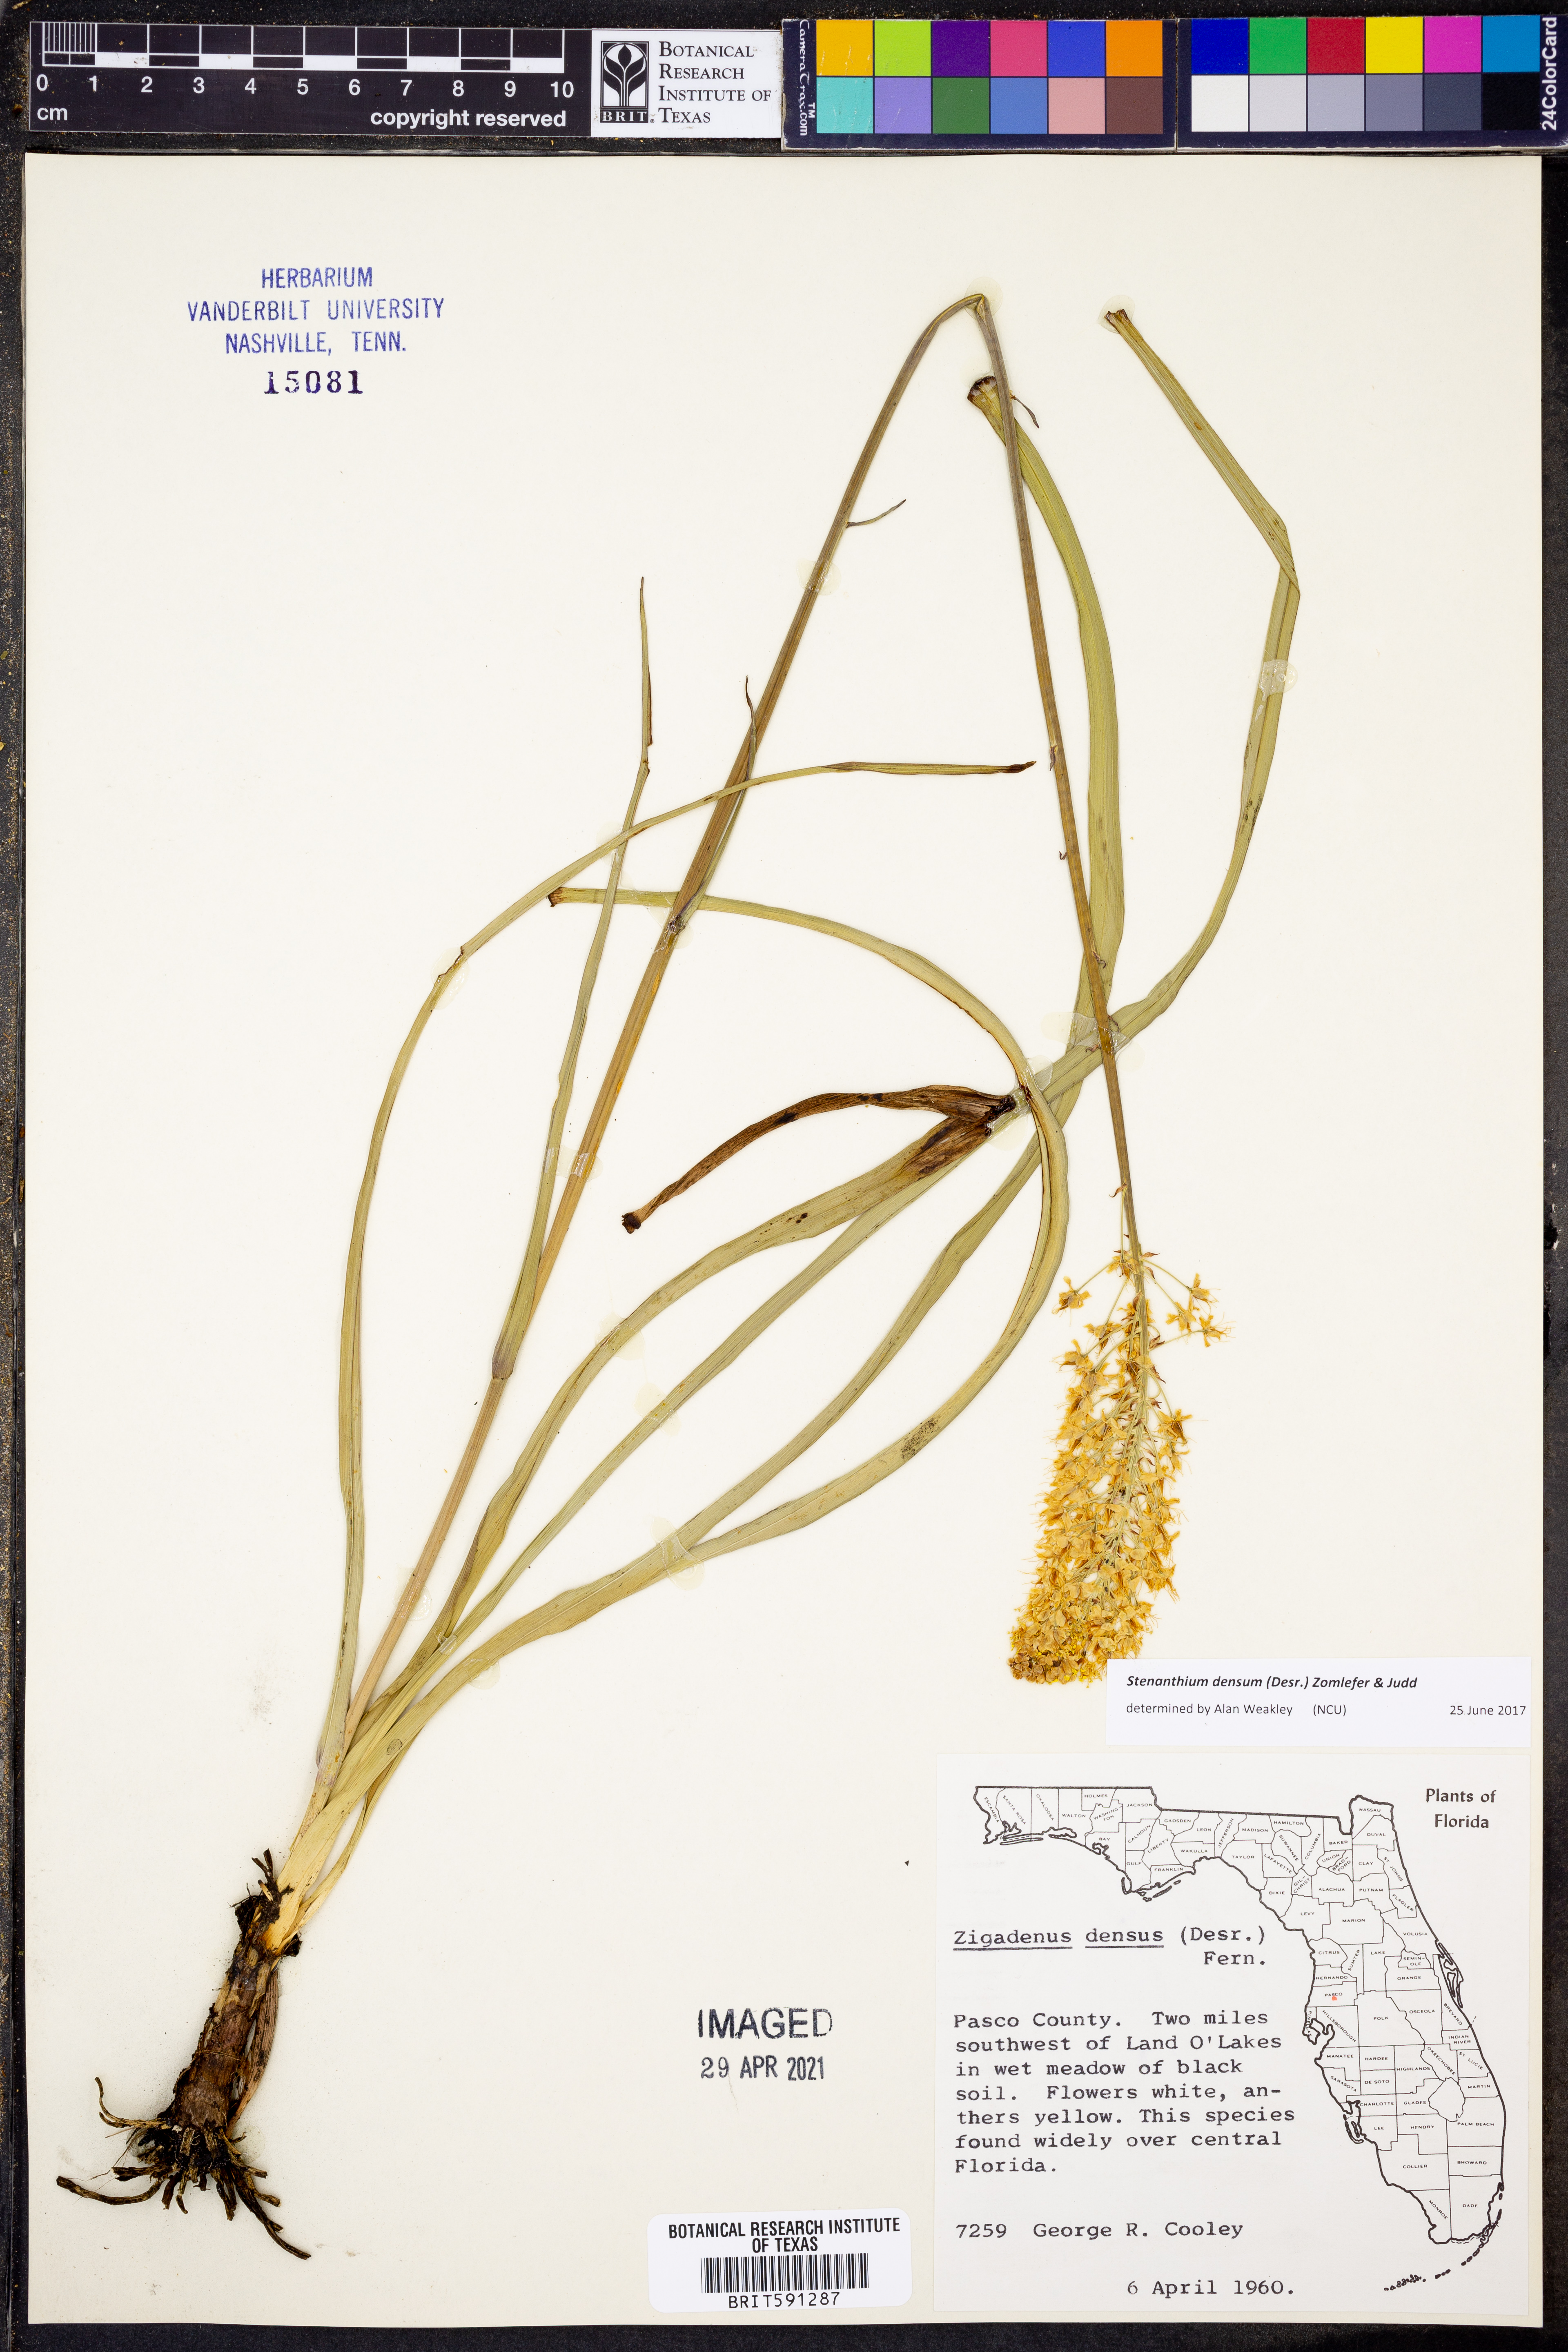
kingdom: Plantae
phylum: Tracheophyta
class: Liliopsida
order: Liliales
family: Melanthiaceae
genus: Stenanthium
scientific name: Stenanthium densum
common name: Crow-poison
